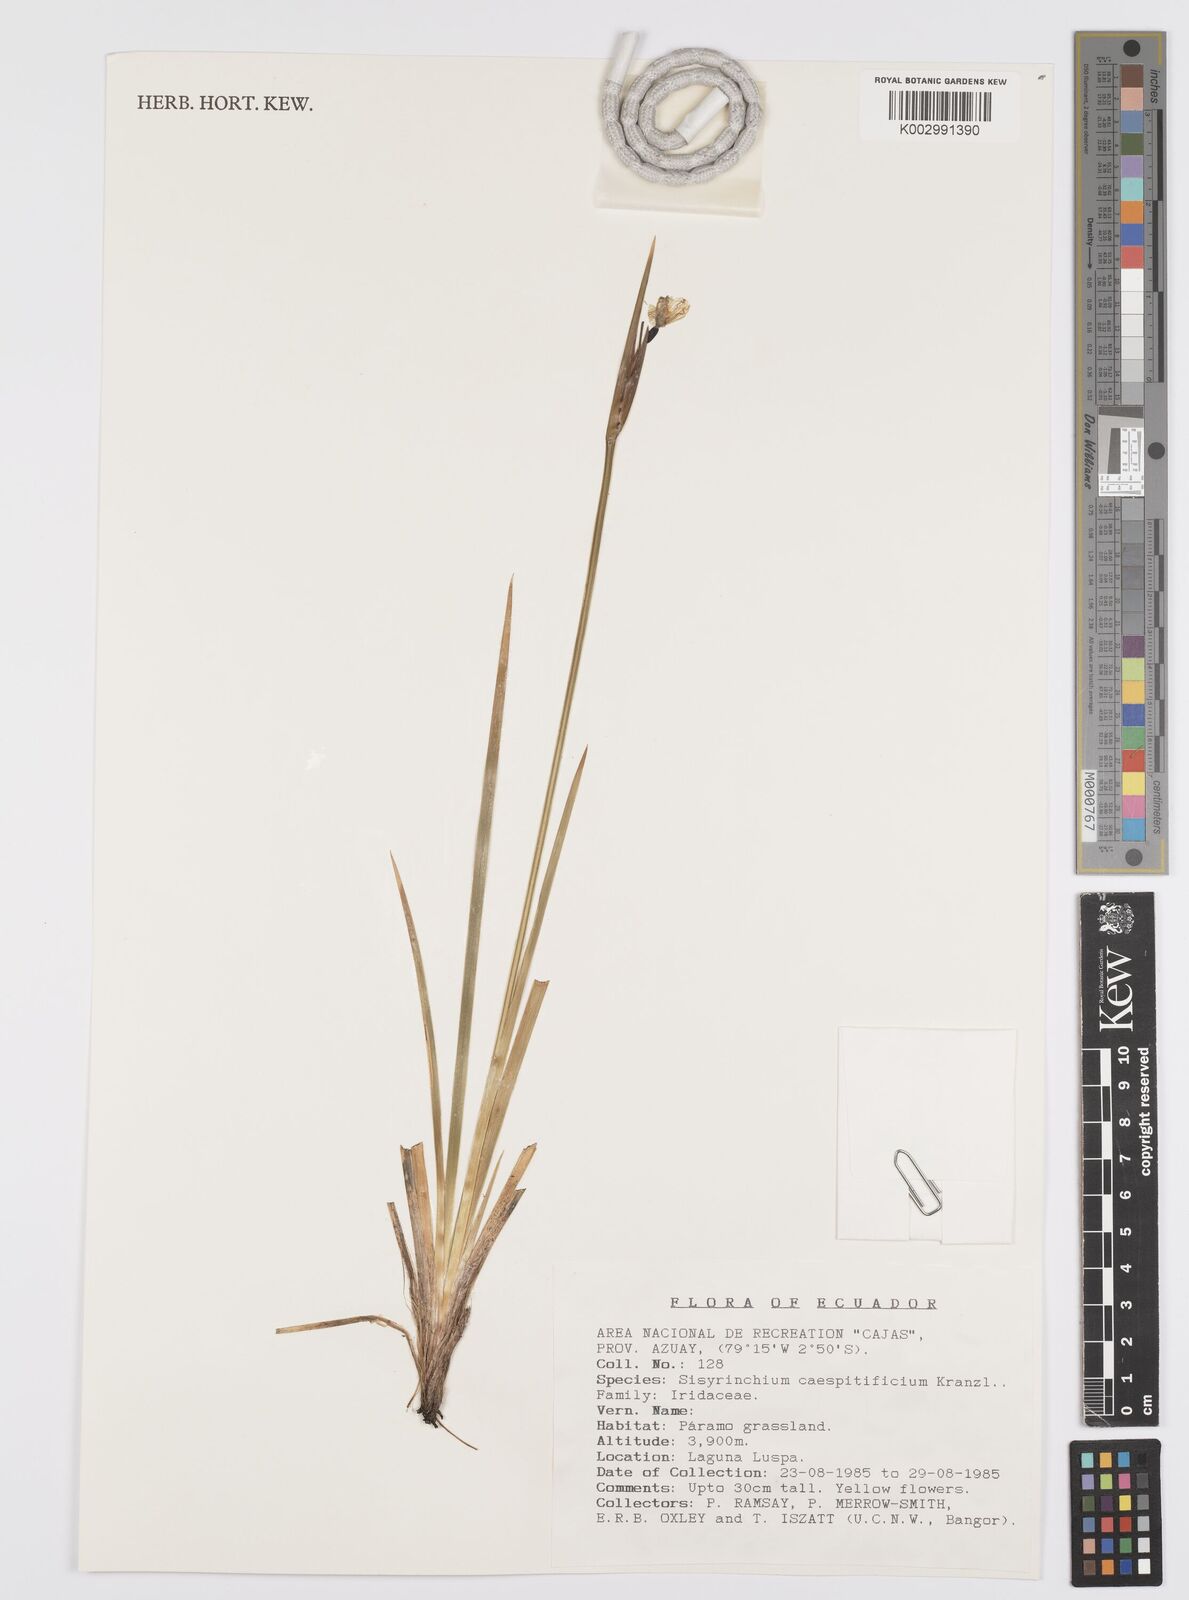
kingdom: Plantae
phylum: Tracheophyta
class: Liliopsida
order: Asparagales
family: Iridaceae
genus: Olsynium
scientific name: Olsynium junceum
